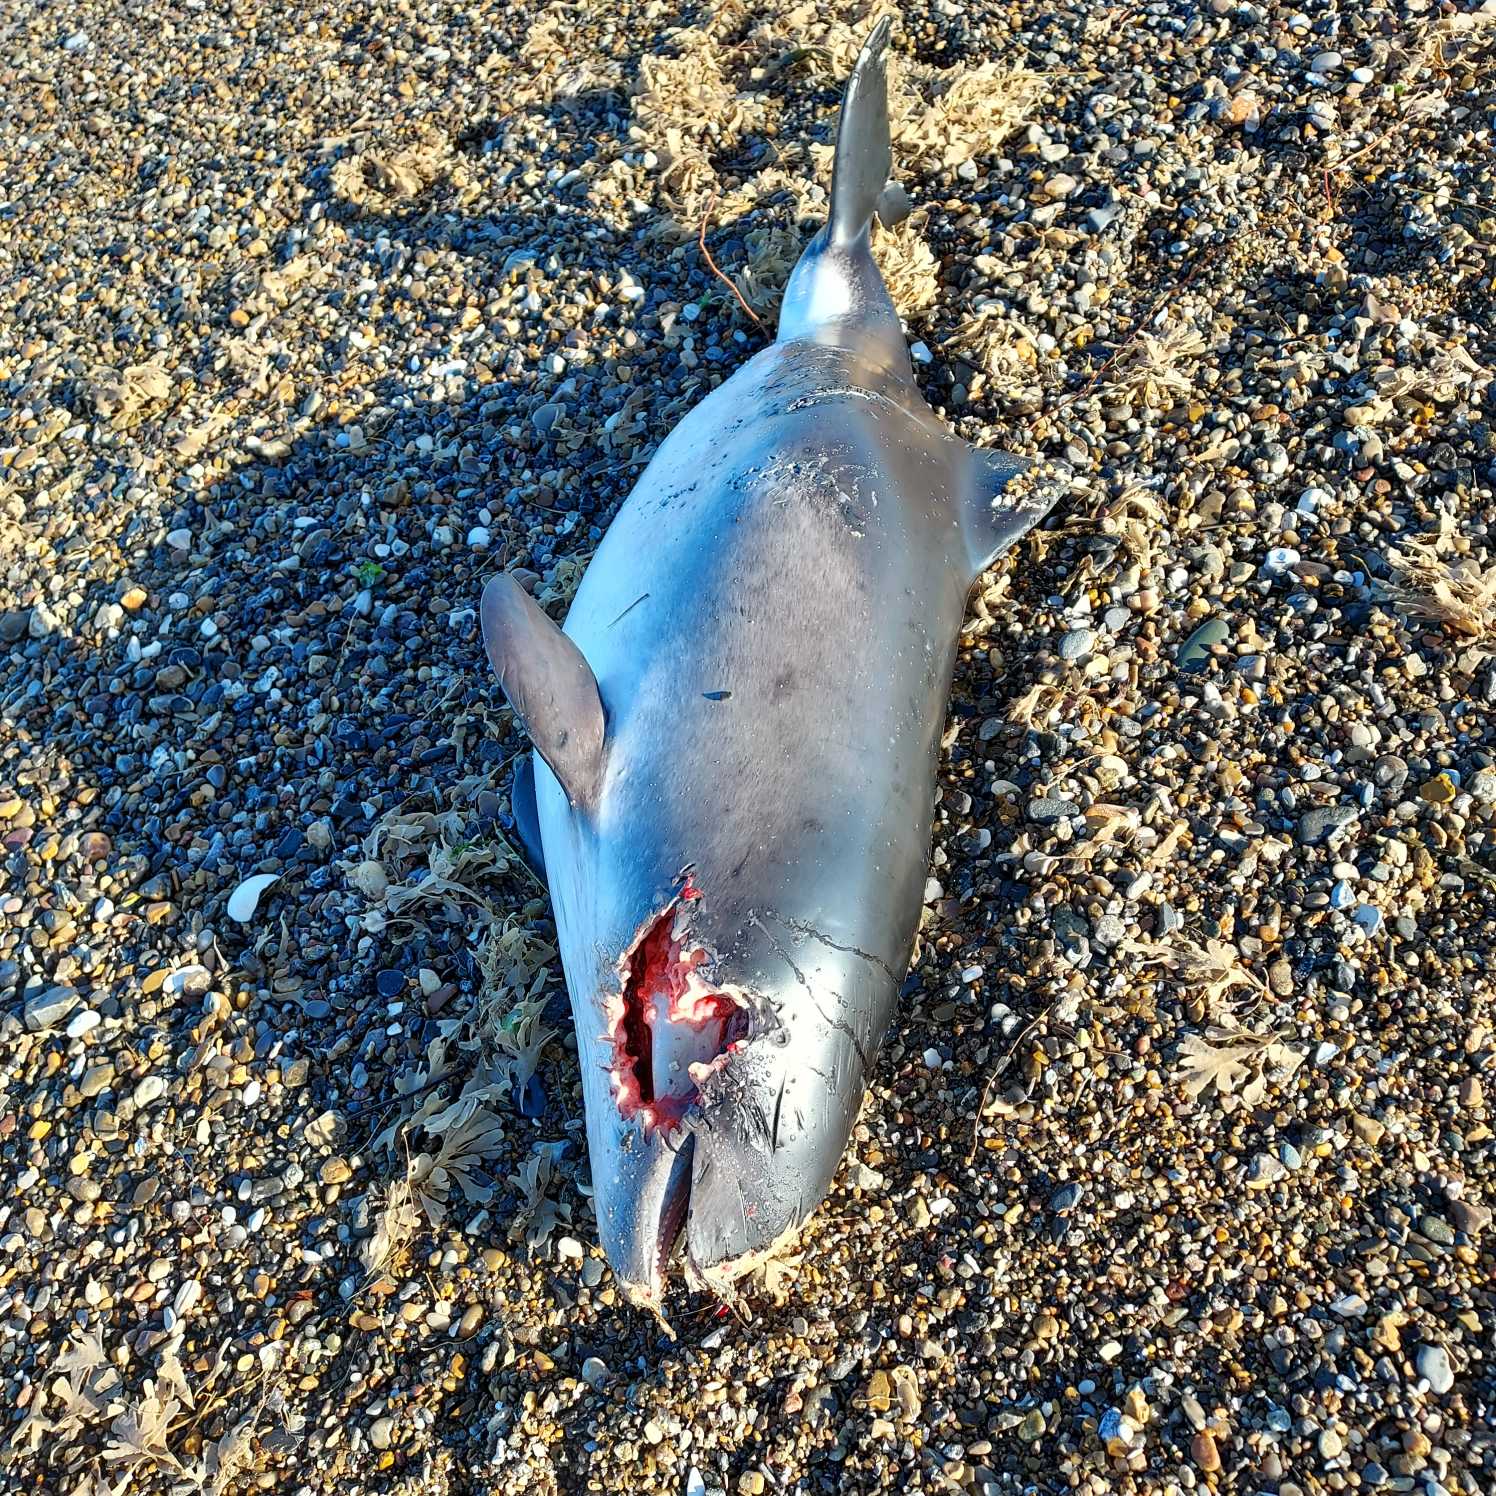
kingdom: Animalia
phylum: Chordata
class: Mammalia
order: Cetacea
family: Phocoenidae
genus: Phocoena
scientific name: Phocoena phocoena
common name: Marsvin
